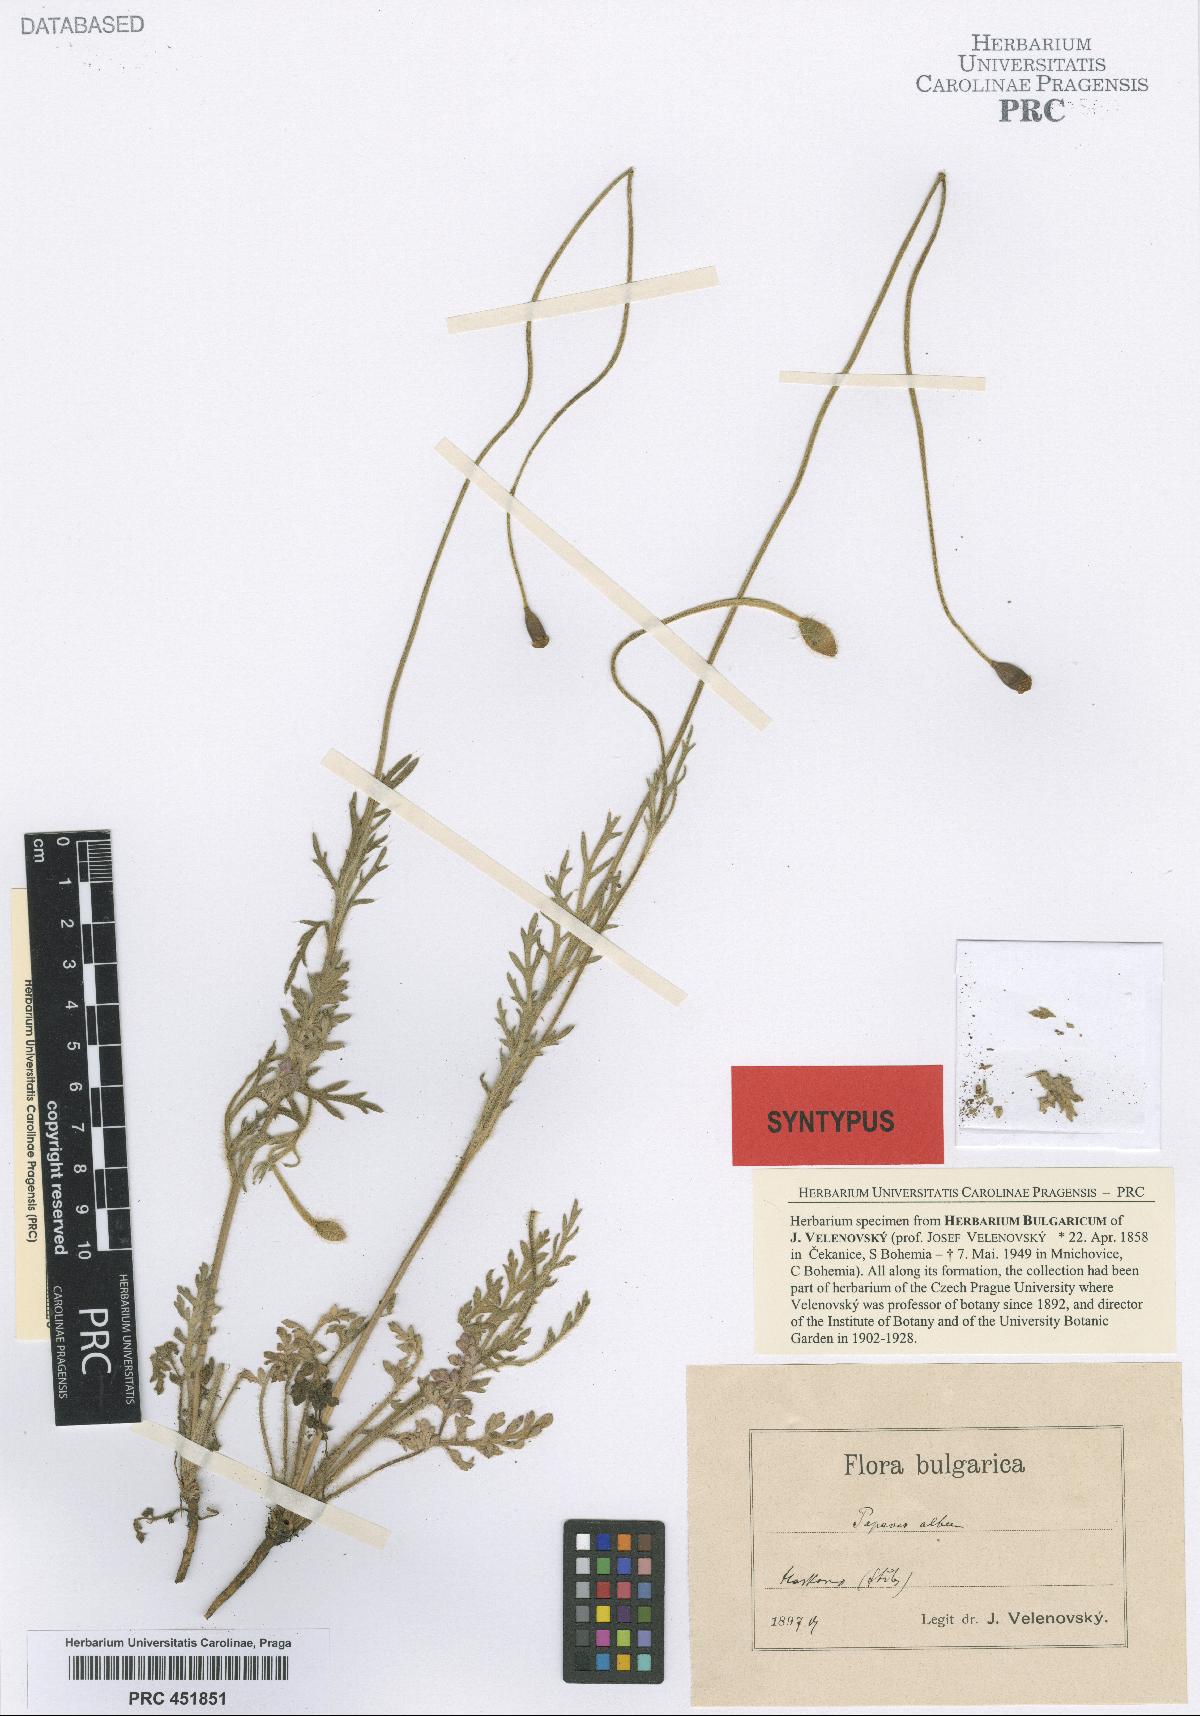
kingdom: Plantae
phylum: Tracheophyta
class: Magnoliopsida
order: Ranunculales
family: Papaveraceae
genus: Papaver
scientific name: Papaver dubium
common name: Long-headed poppy
